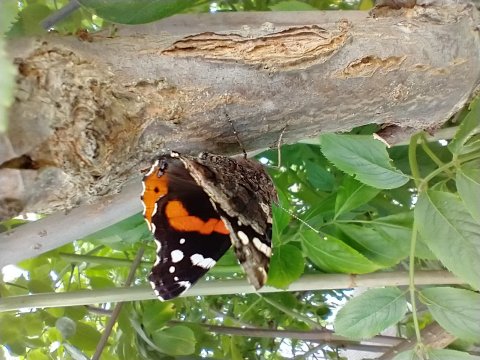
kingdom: Animalia
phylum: Arthropoda
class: Insecta
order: Lepidoptera
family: Nymphalidae
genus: Vanessa
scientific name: Vanessa atalanta
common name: Red Admiral
